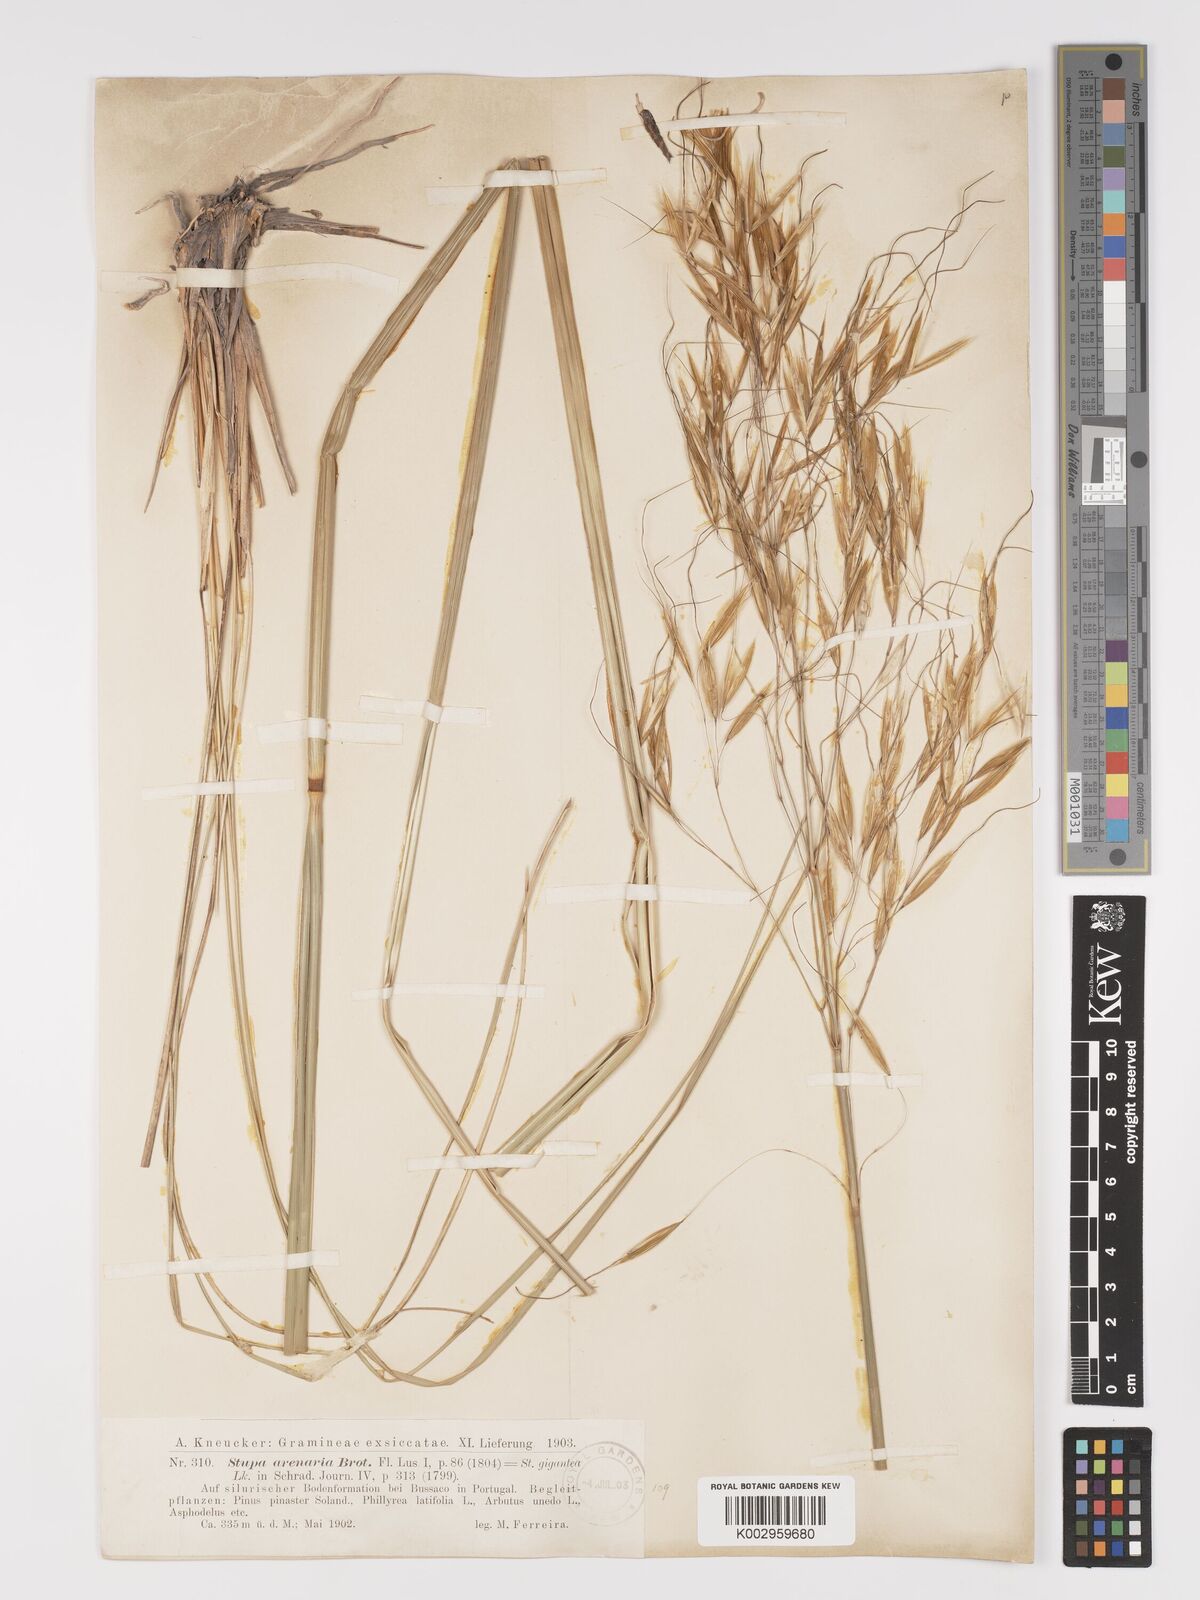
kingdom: Plantae
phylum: Tracheophyta
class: Liliopsida
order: Poales
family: Poaceae
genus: Celtica
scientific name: Celtica gigantea
